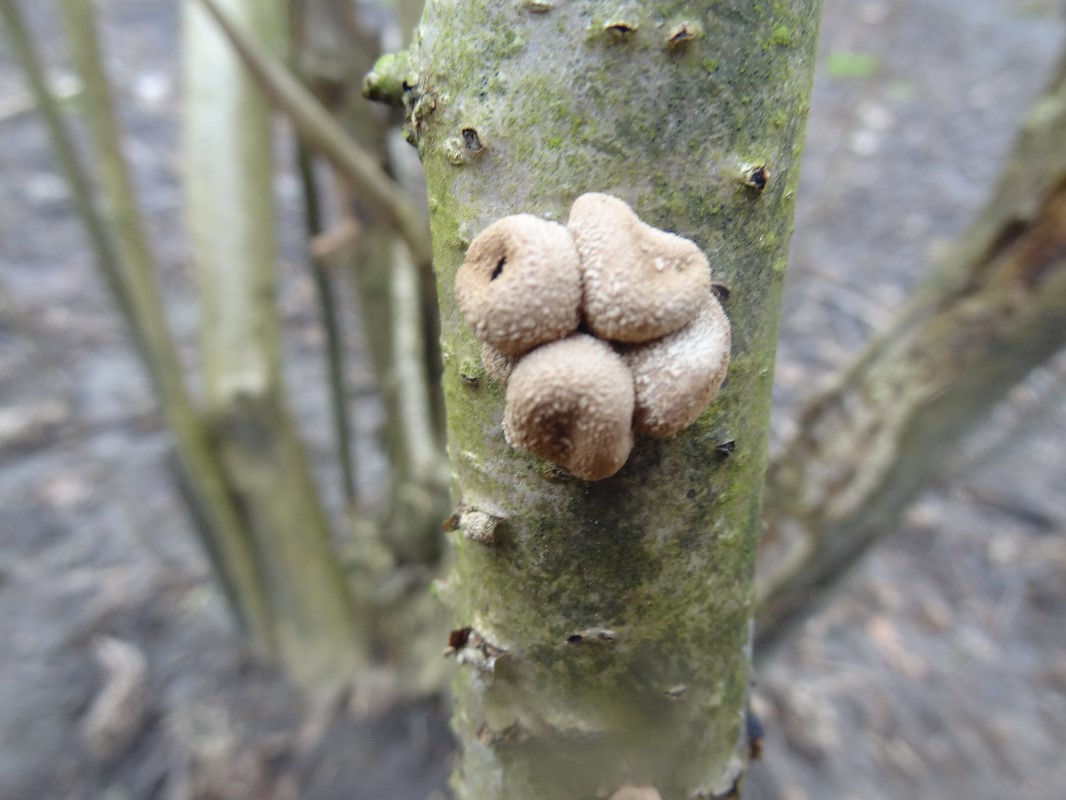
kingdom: Fungi
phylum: Ascomycota
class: Leotiomycetes
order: Helotiales
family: Cenangiaceae
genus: Encoelia
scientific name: Encoelia furfuracea
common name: hassel-læderskive
